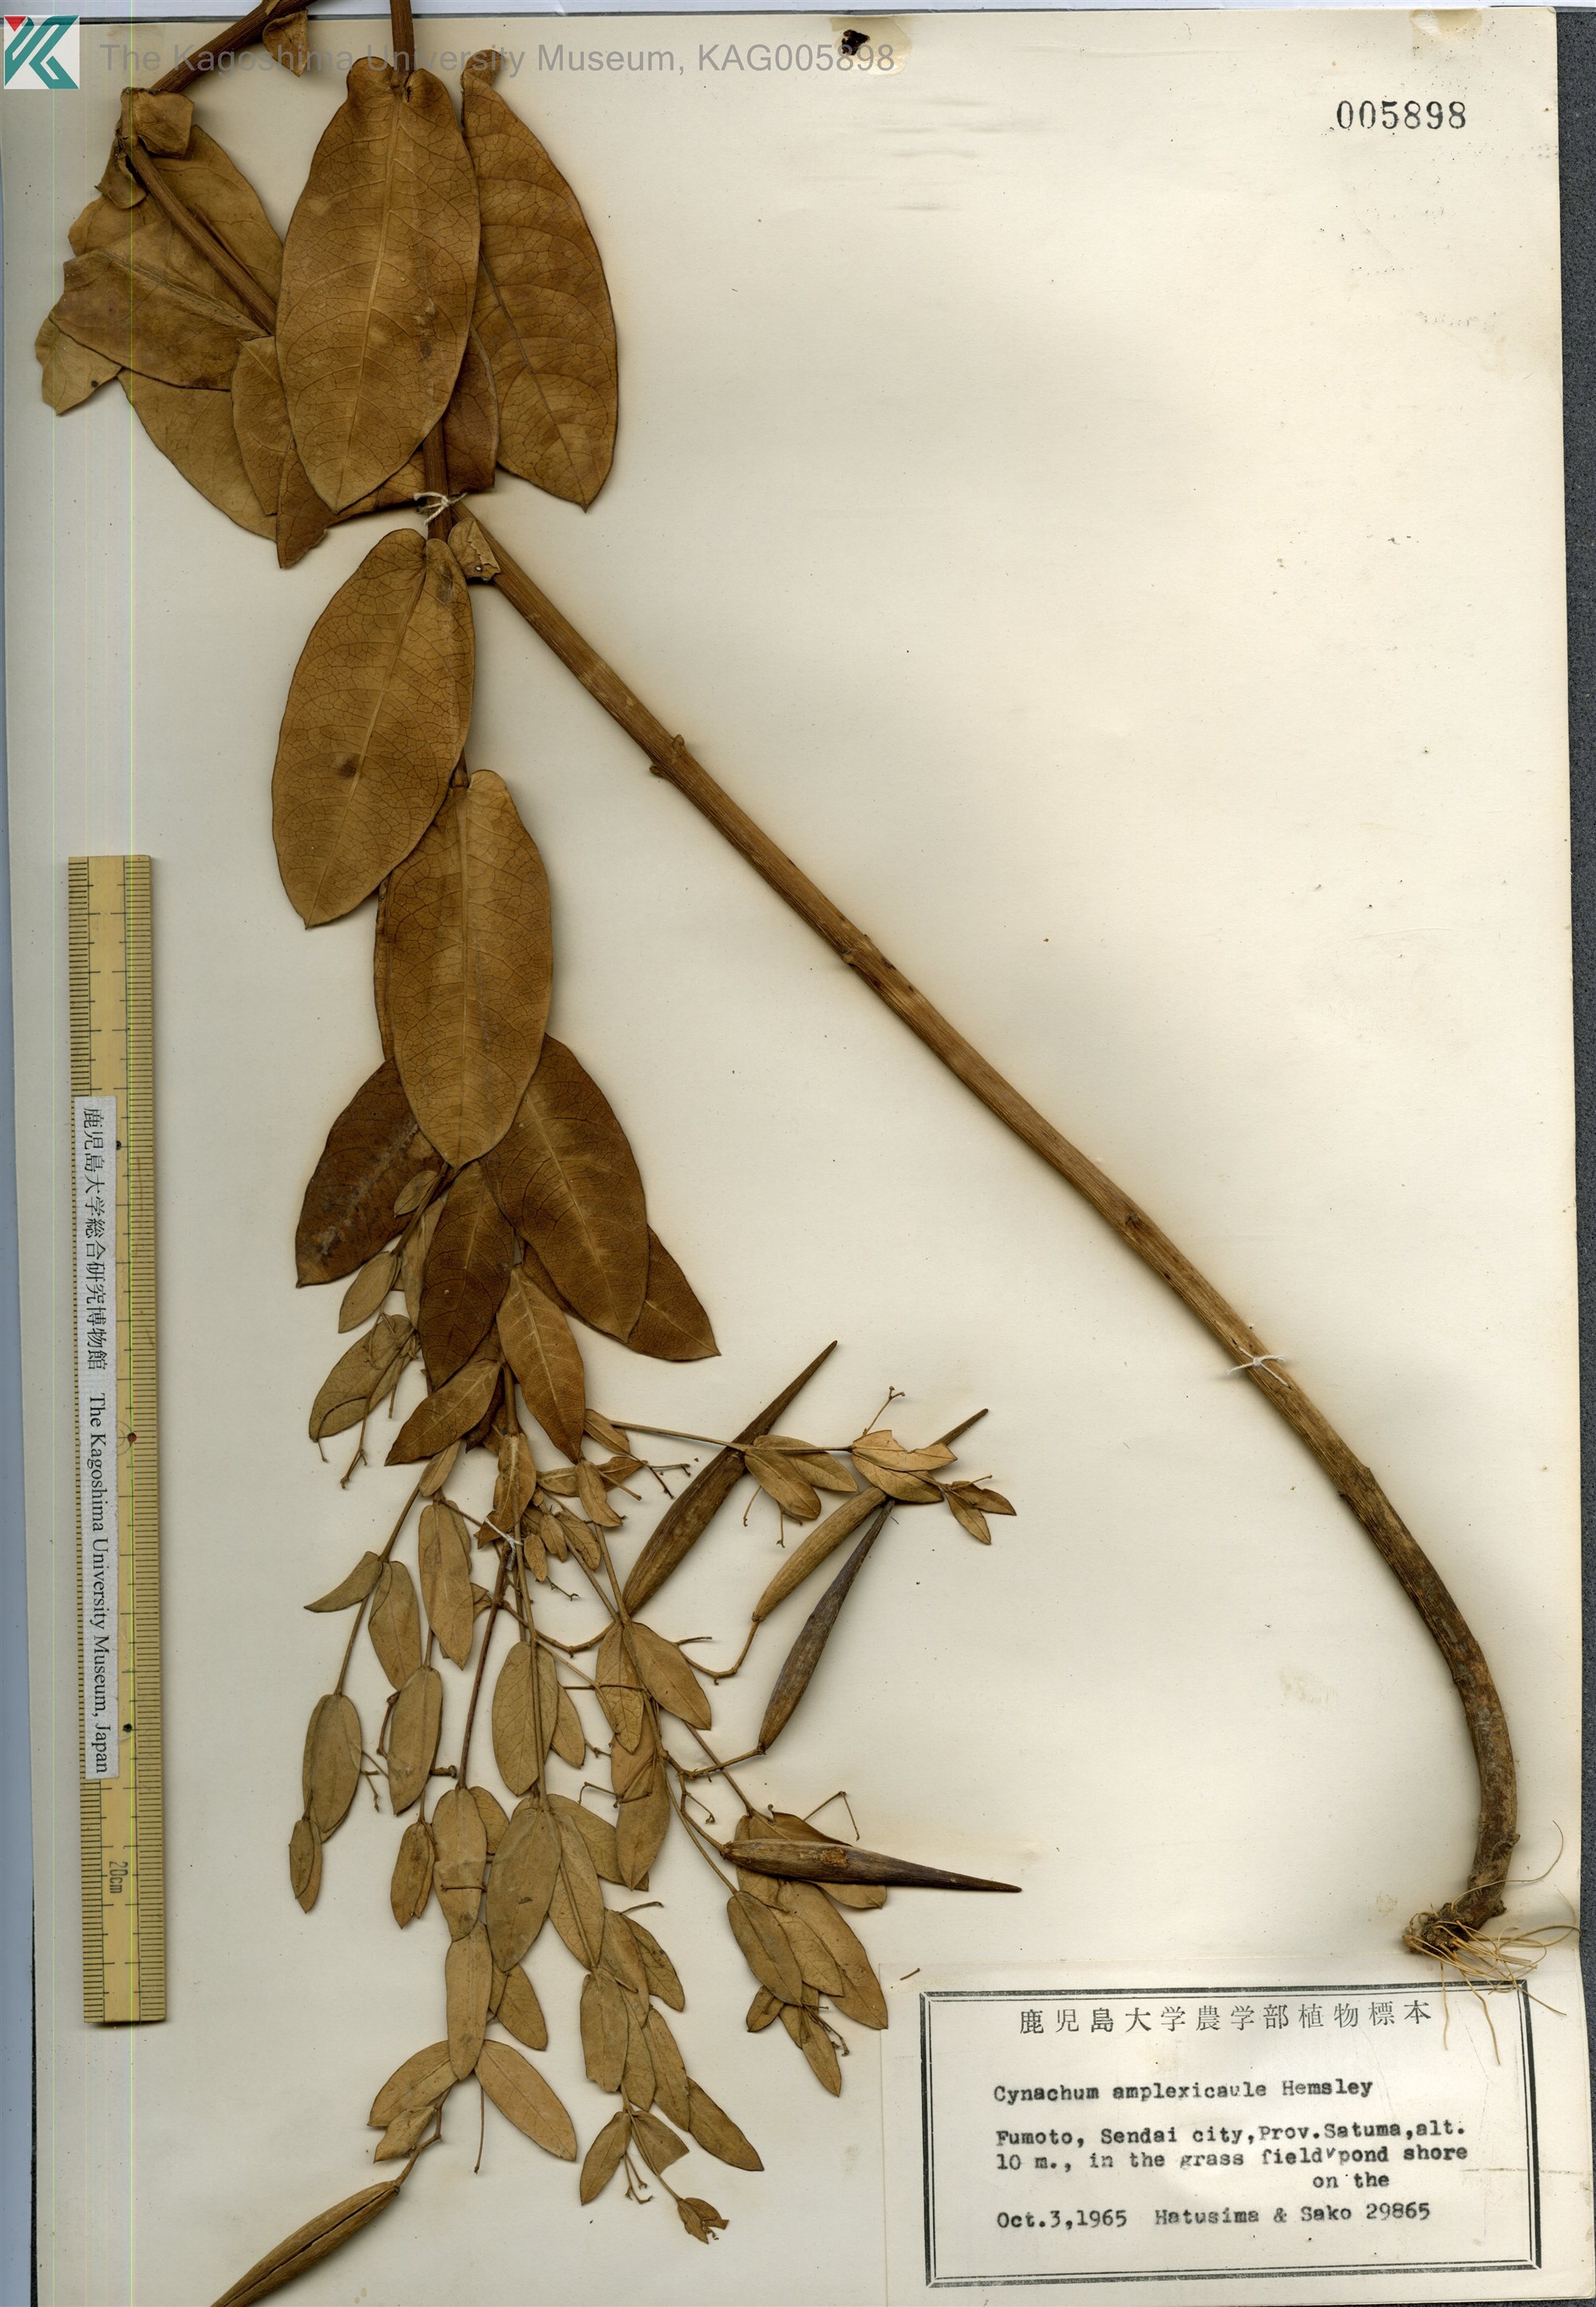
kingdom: Plantae
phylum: Tracheophyta
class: Magnoliopsida
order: Gentianales
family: Apocynaceae
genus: Vincetoxicum
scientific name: Vincetoxicum amplexicaule
